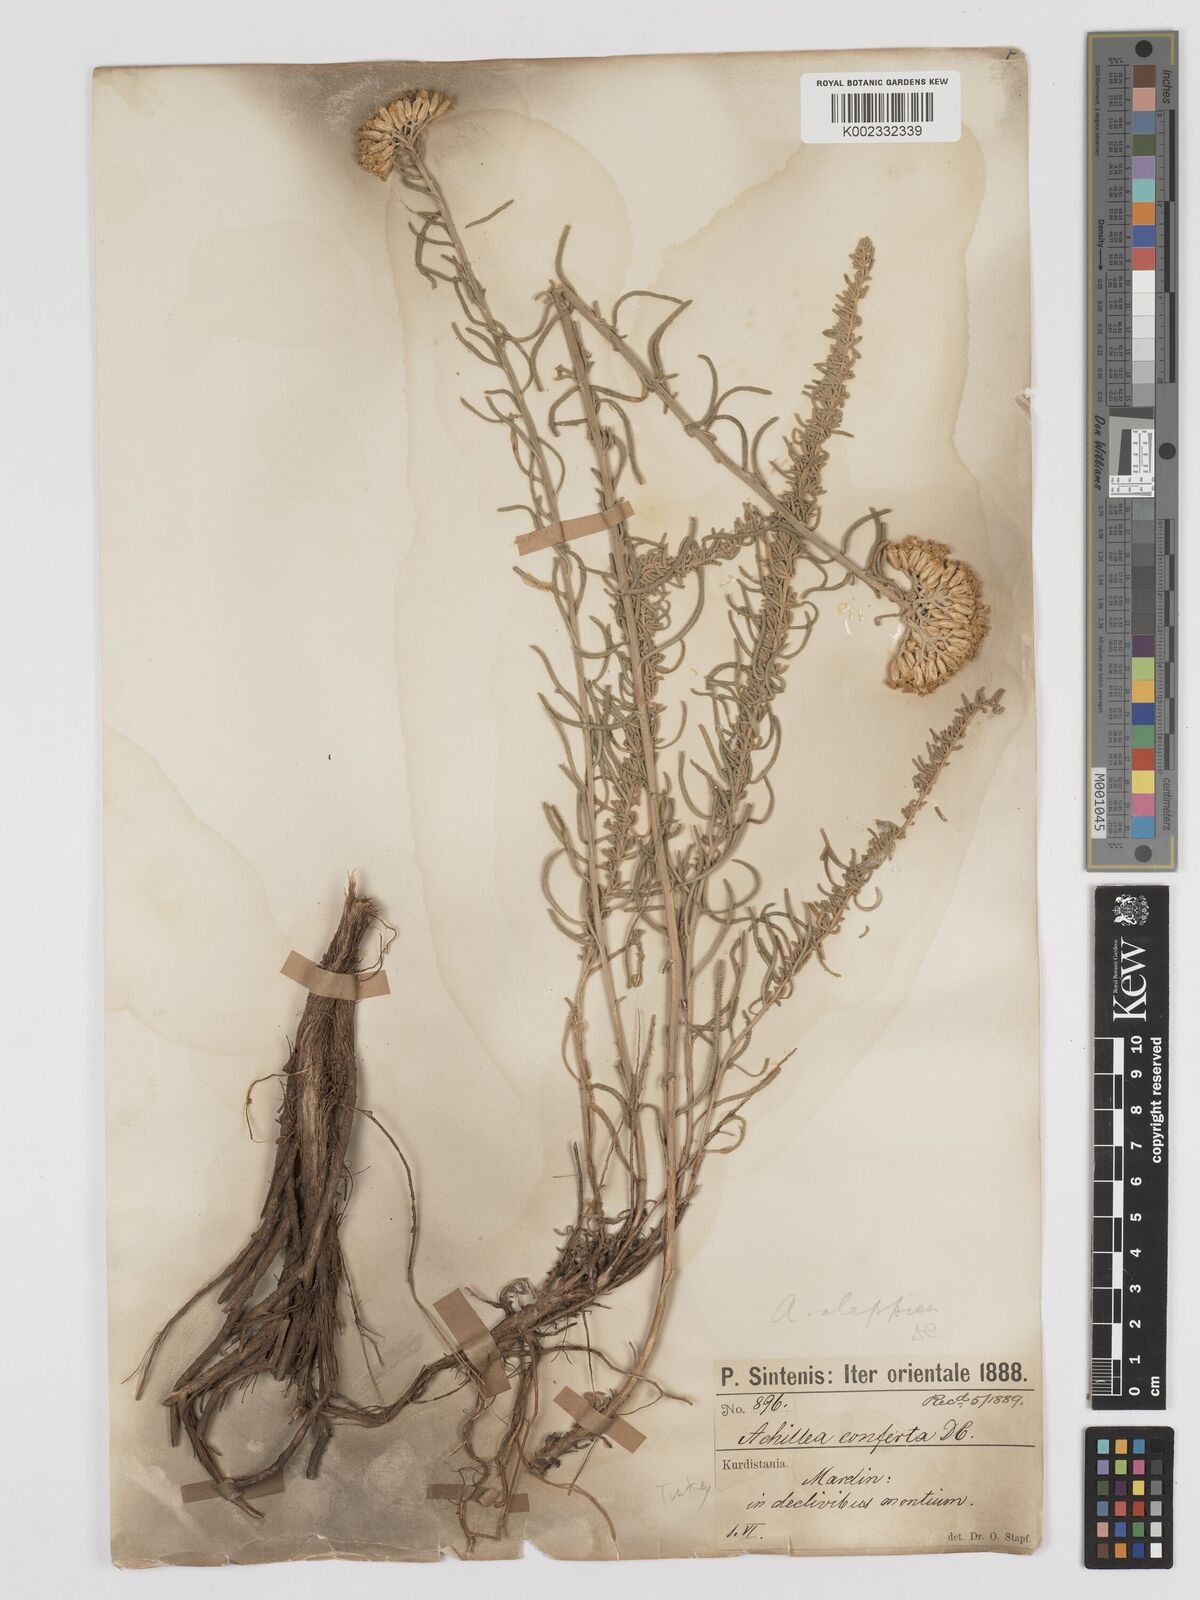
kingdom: Plantae
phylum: Tracheophyta
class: Magnoliopsida
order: Asterales
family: Asteraceae
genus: Achillea
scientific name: Achillea aleppica
